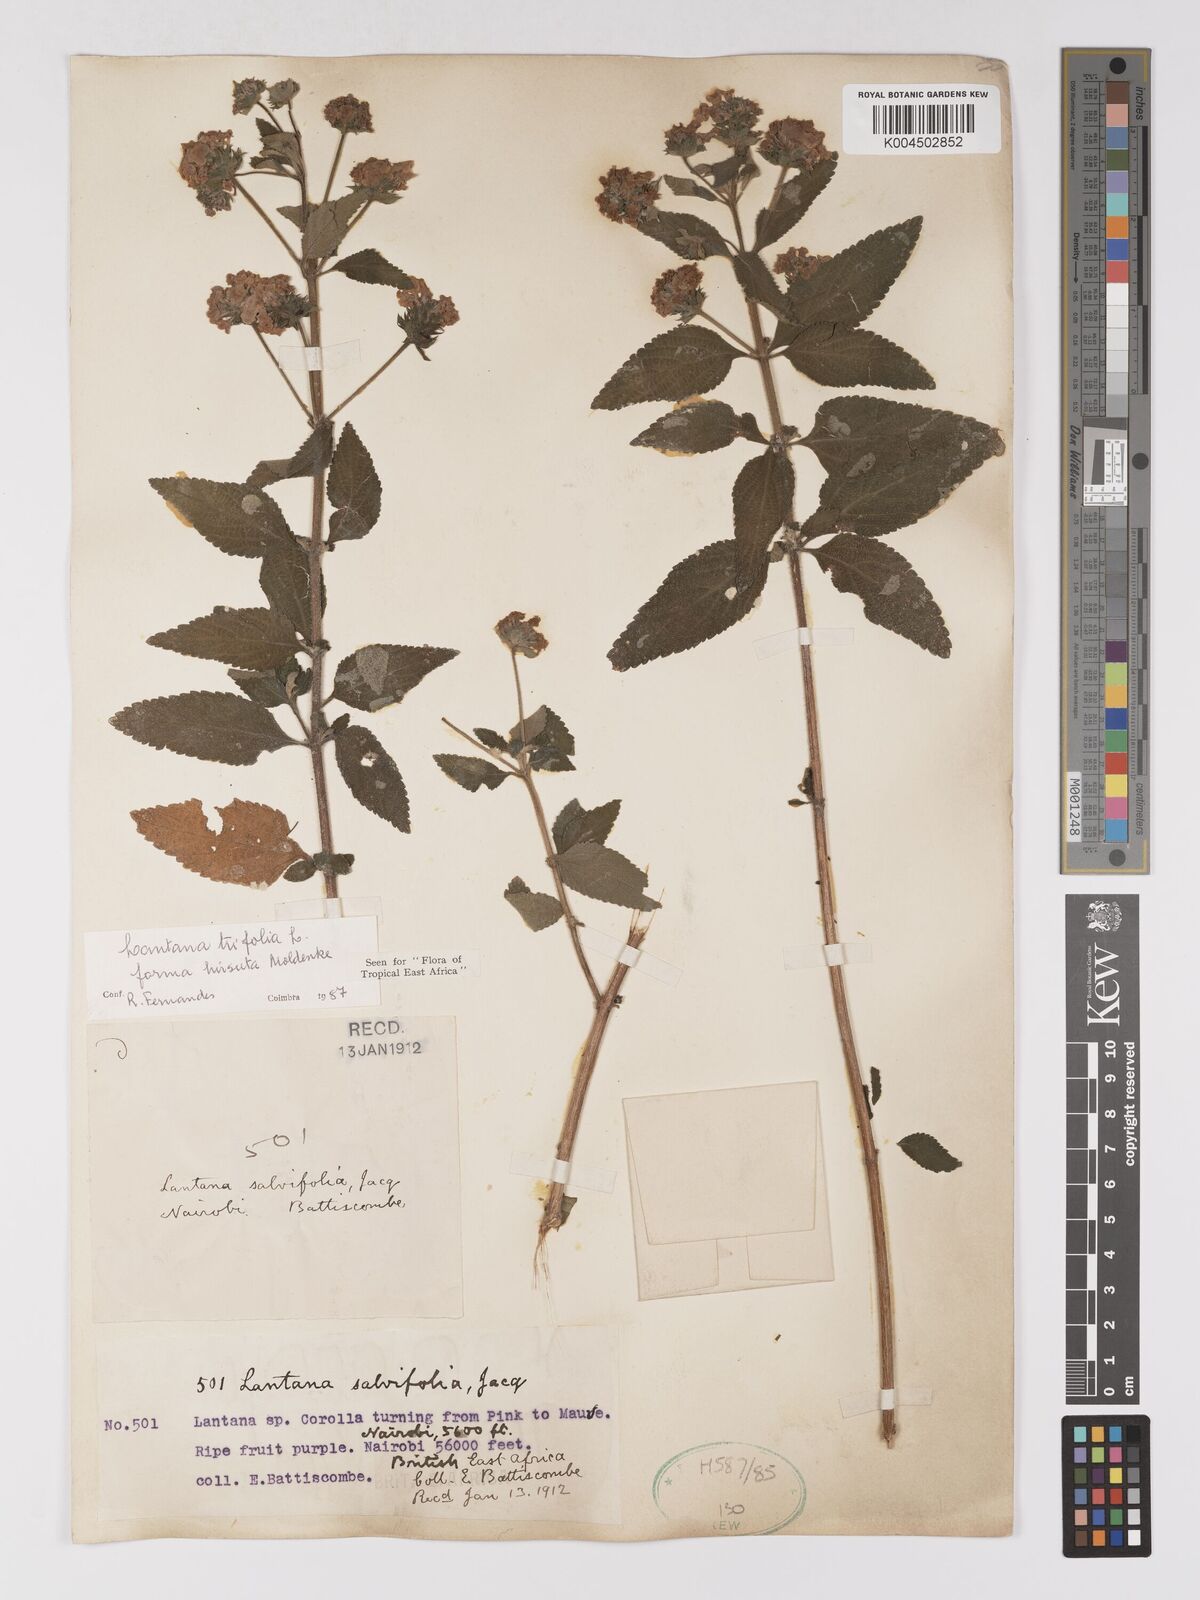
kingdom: Plantae
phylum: Tracheophyta
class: Magnoliopsida
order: Lamiales
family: Verbenaceae
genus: Lantana
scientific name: Lantana trifolia
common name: Sweet-sage
